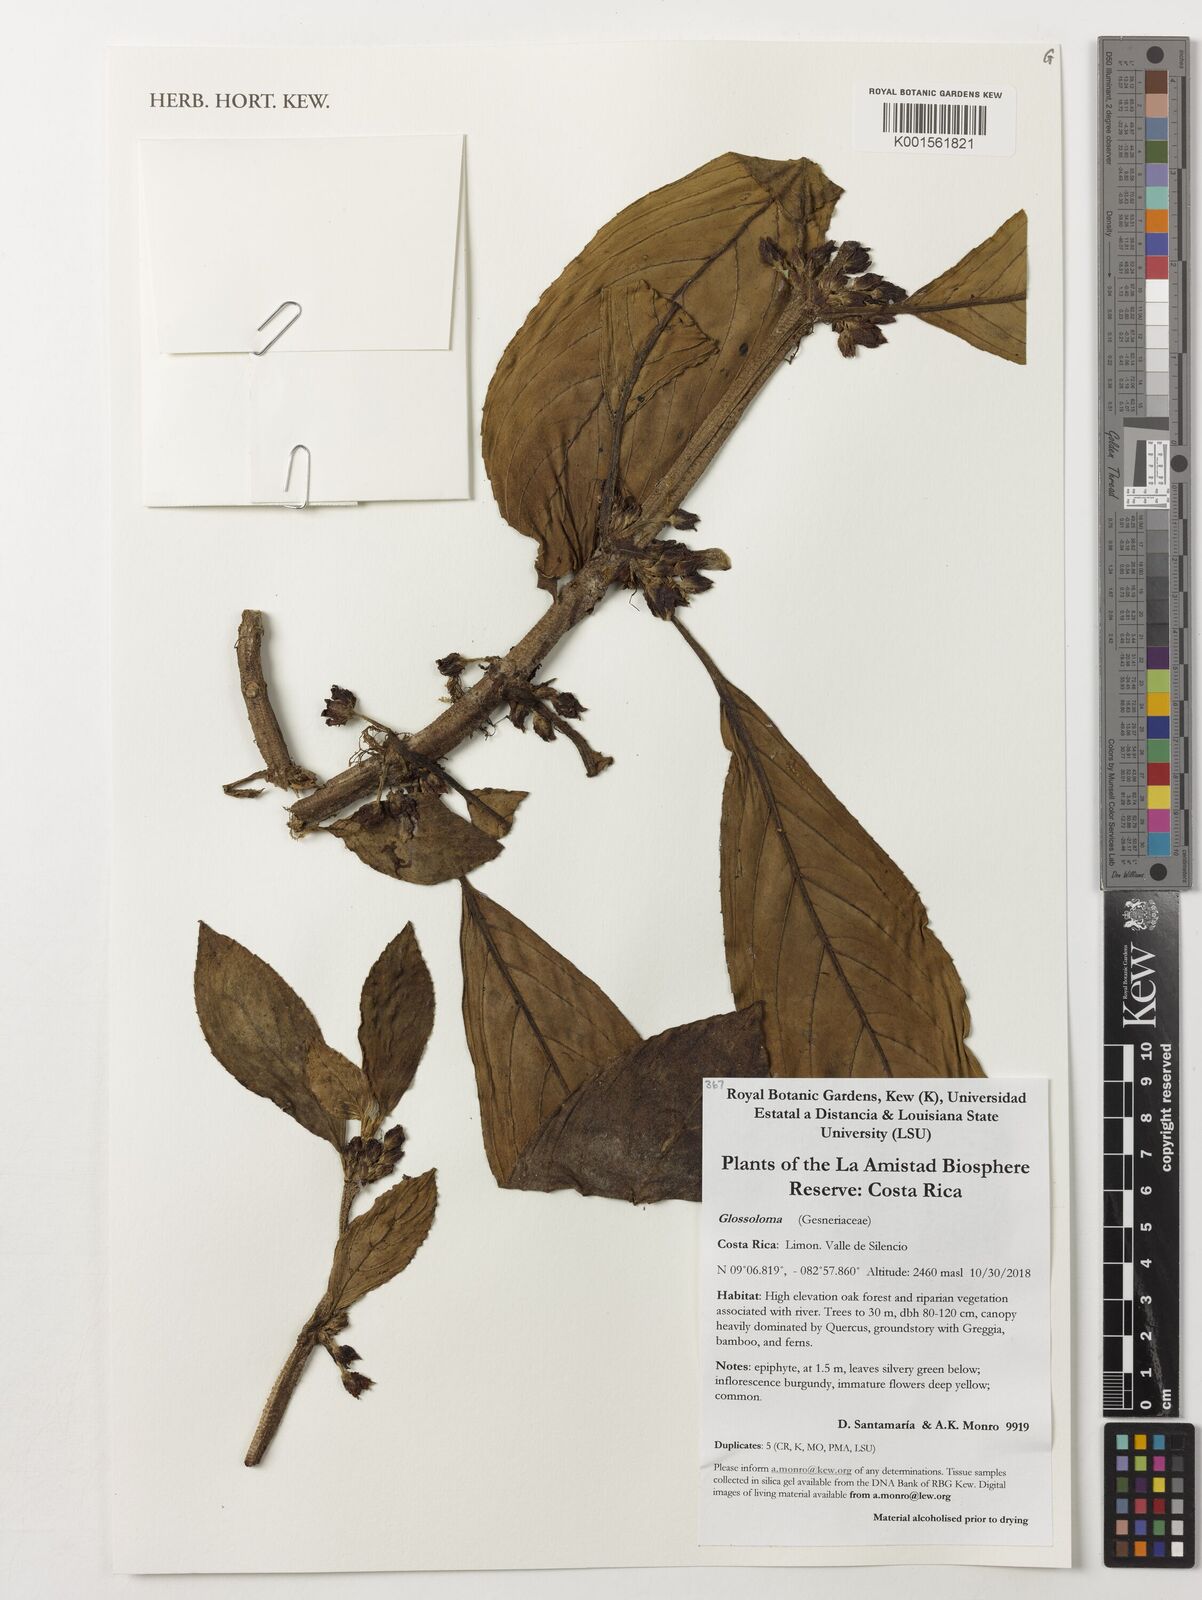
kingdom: Plantae
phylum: Tracheophyta
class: Magnoliopsida
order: Lamiales
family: Gesneriaceae
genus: Glossoloma
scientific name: Glossoloma
